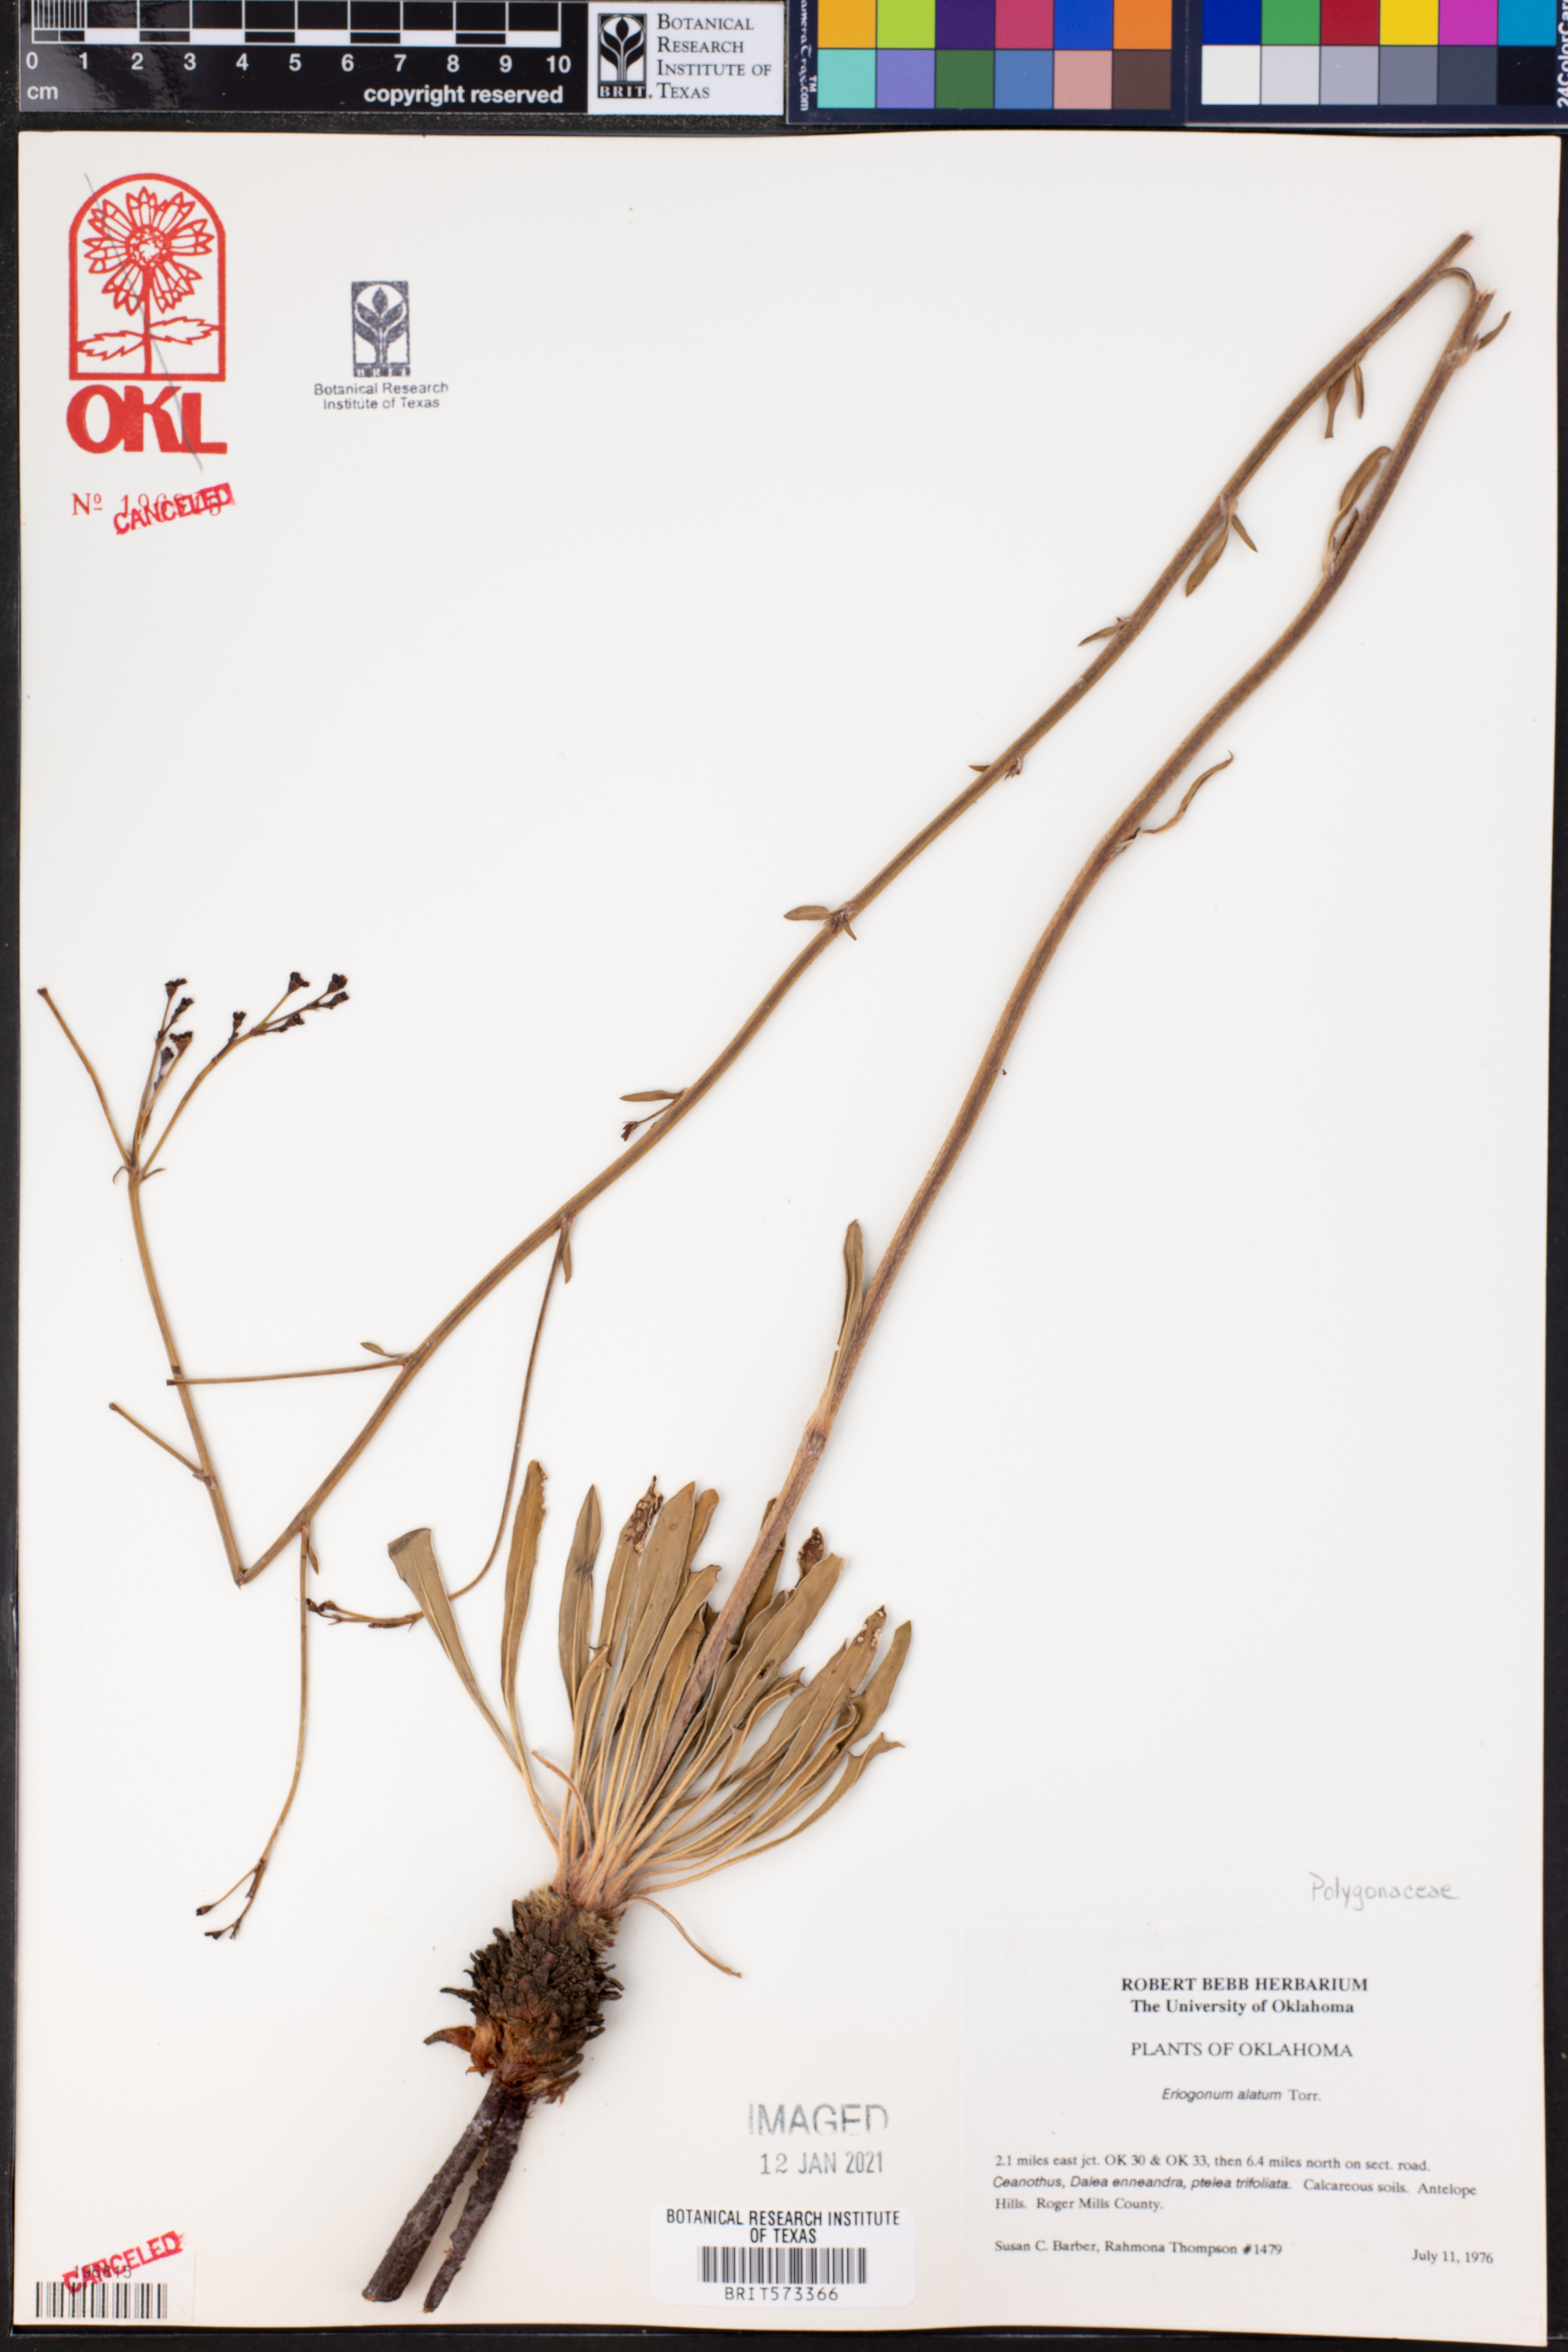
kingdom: Plantae
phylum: Tracheophyta
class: Magnoliopsida
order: Caryophyllales
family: Polygonaceae
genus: Eriogonum
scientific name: Eriogonum alatum
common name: Winged eriogonum
